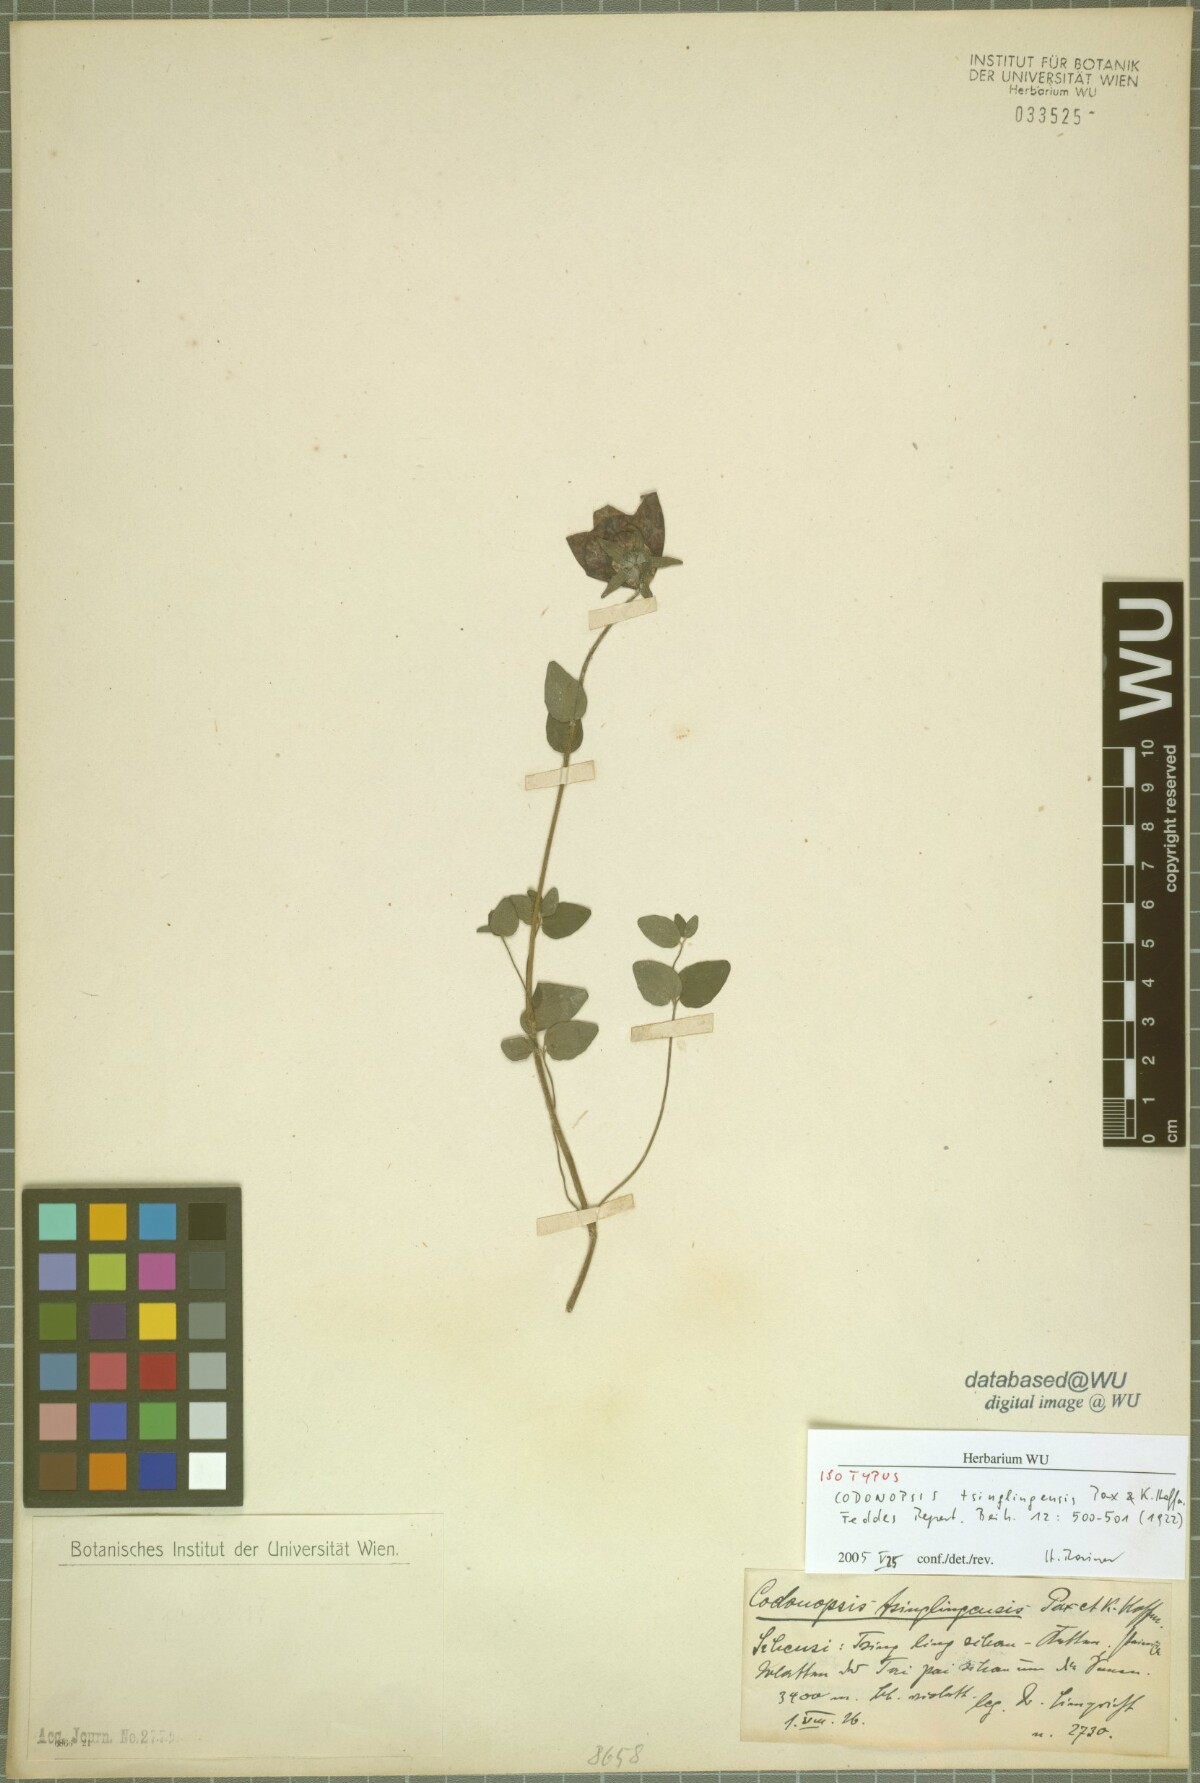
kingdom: Plantae
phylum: Tracheophyta
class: Magnoliopsida
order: Asterales
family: Campanulaceae
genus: Codonopsis
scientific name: Codonopsis tsinlingensis
